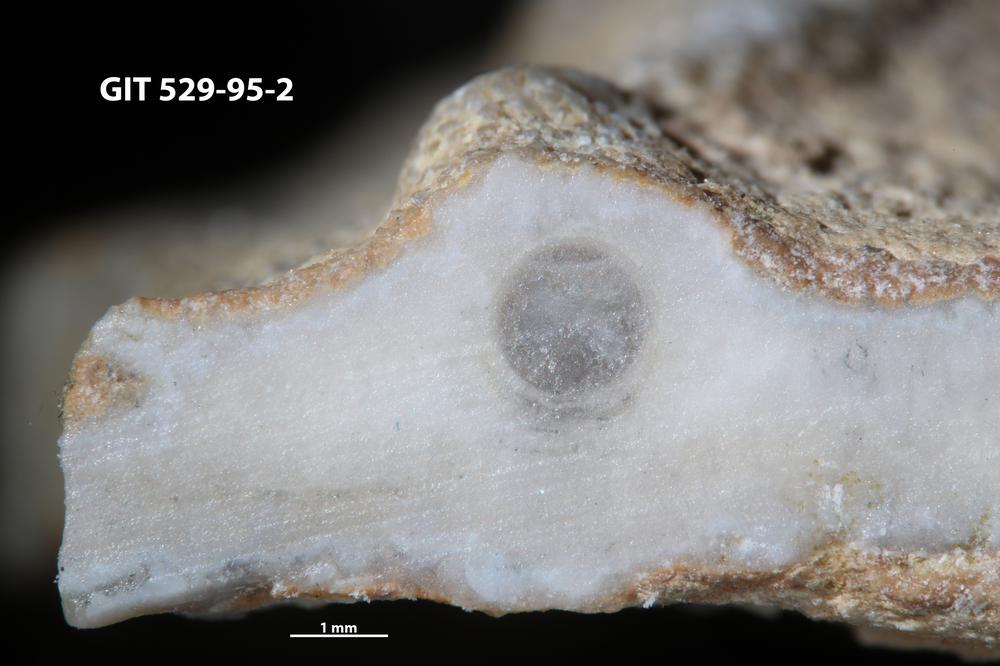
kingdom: Animalia
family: Cornulitidae
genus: Cornulites
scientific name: Cornulites
